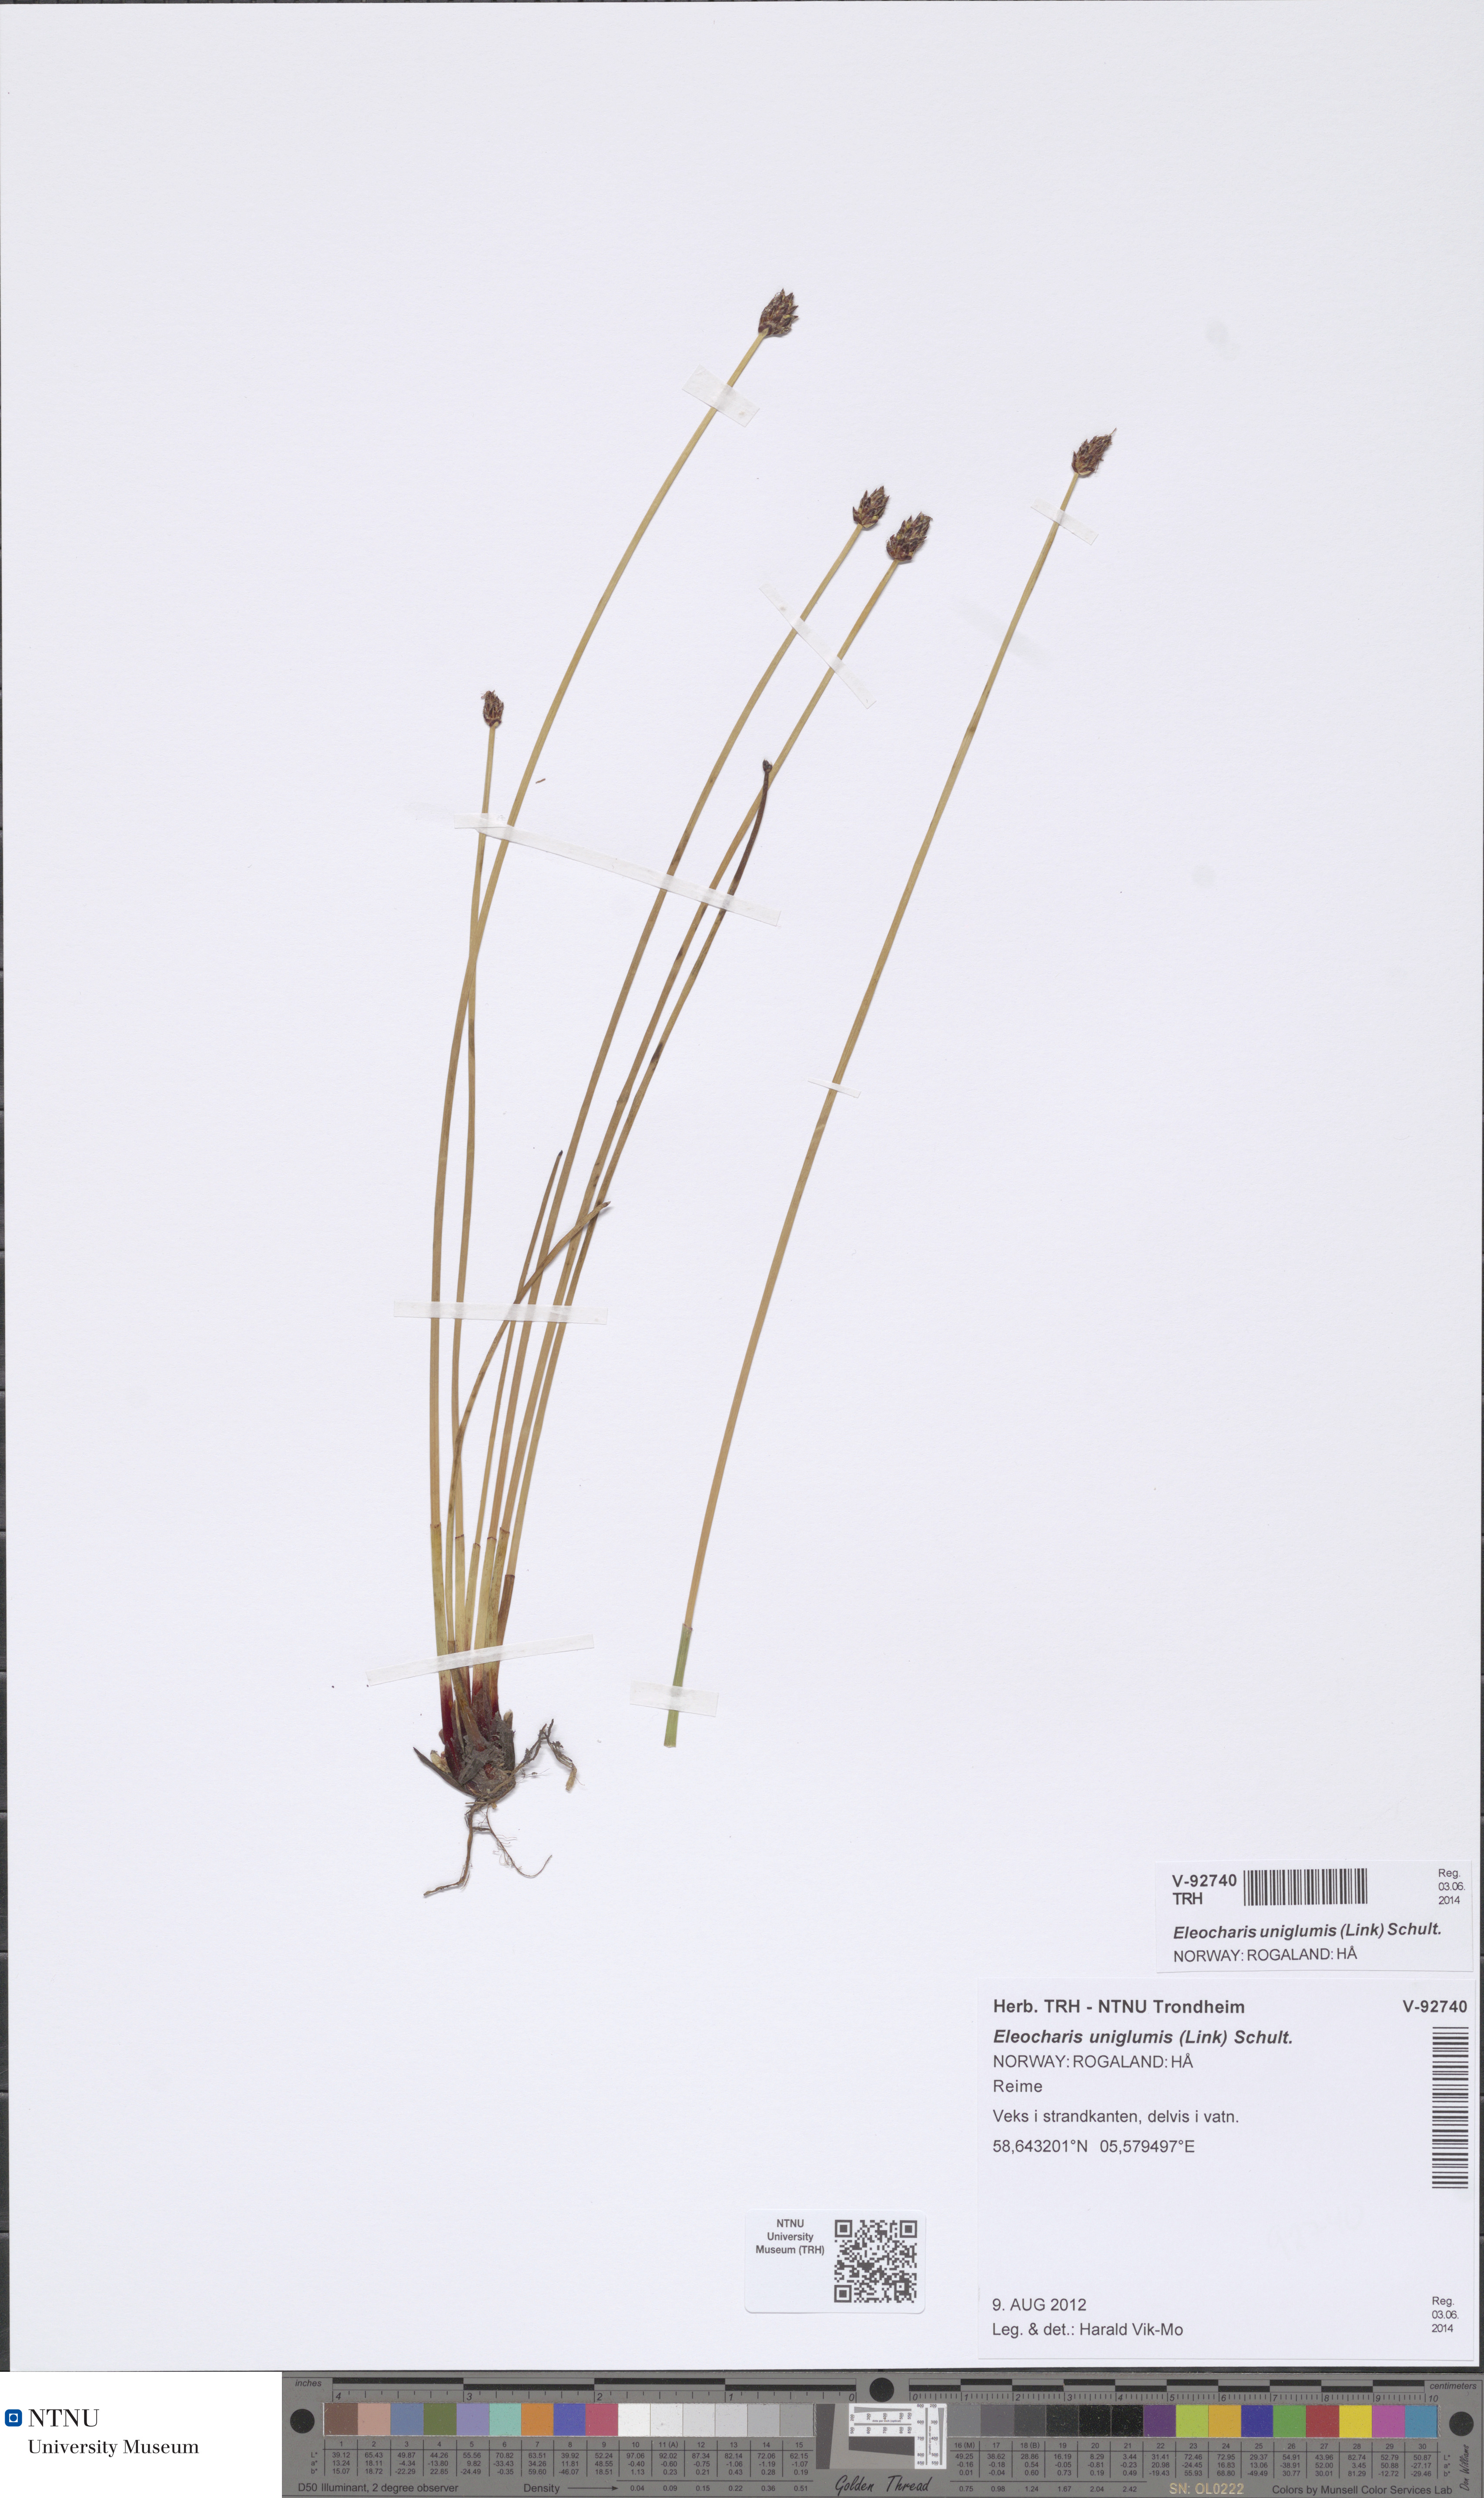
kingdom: Plantae
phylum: Tracheophyta
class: Liliopsida
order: Poales
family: Cyperaceae
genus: Eleocharis
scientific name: Eleocharis uniglumis
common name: Slender spike-rush
